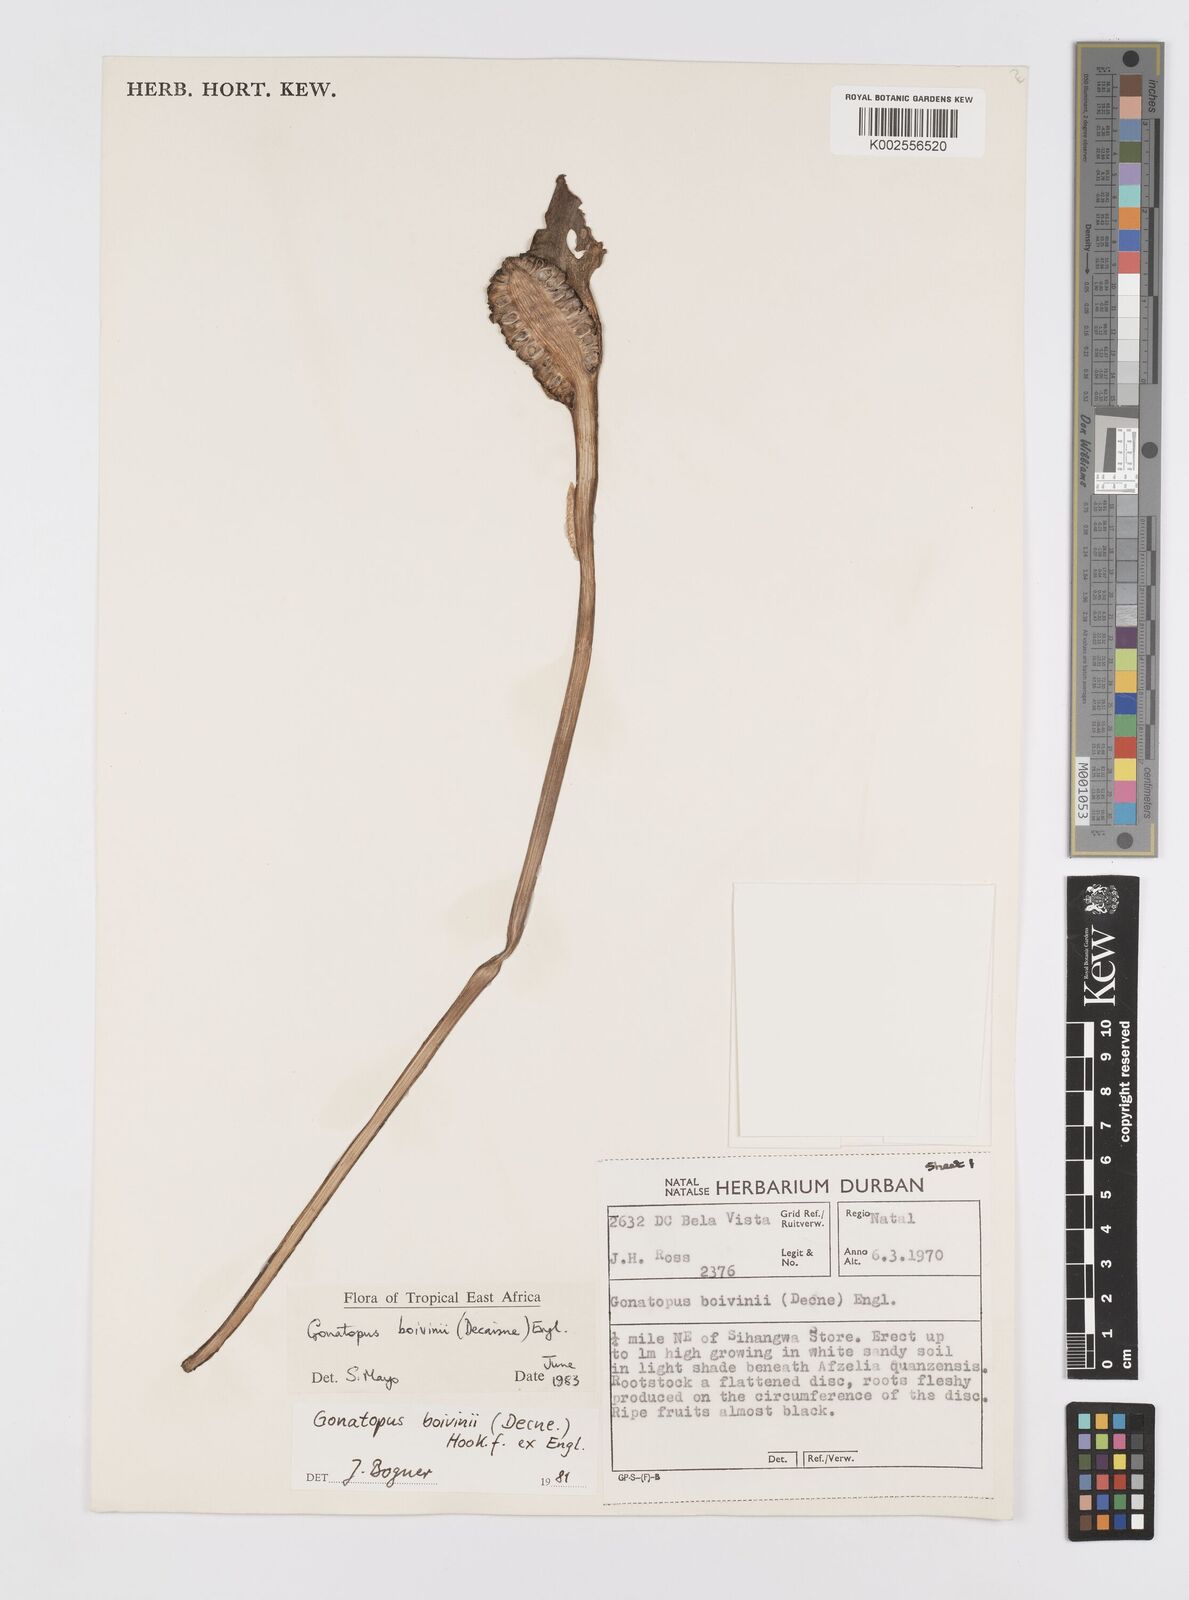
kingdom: Plantae
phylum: Tracheophyta
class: Liliopsida
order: Alismatales
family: Araceae
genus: Gonatopus
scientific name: Gonatopus boivinii
